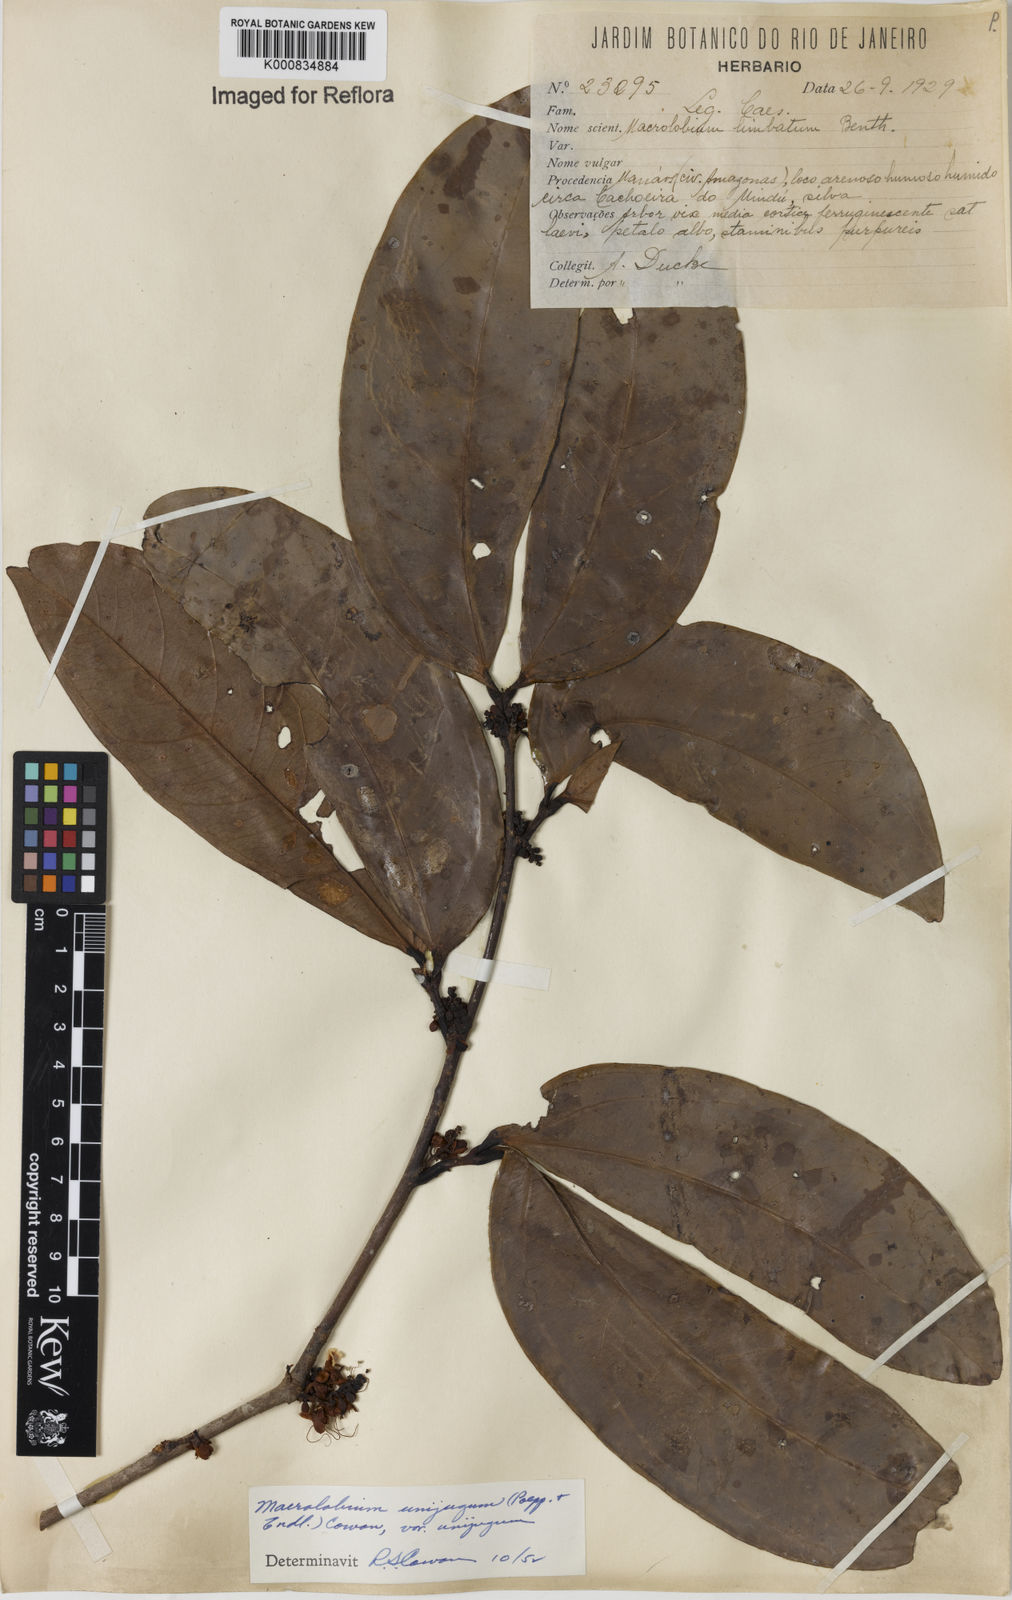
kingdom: Plantae
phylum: Tracheophyta
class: Magnoliopsida
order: Fabales
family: Fabaceae
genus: Macrolobium
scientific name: Macrolobium limbatum
